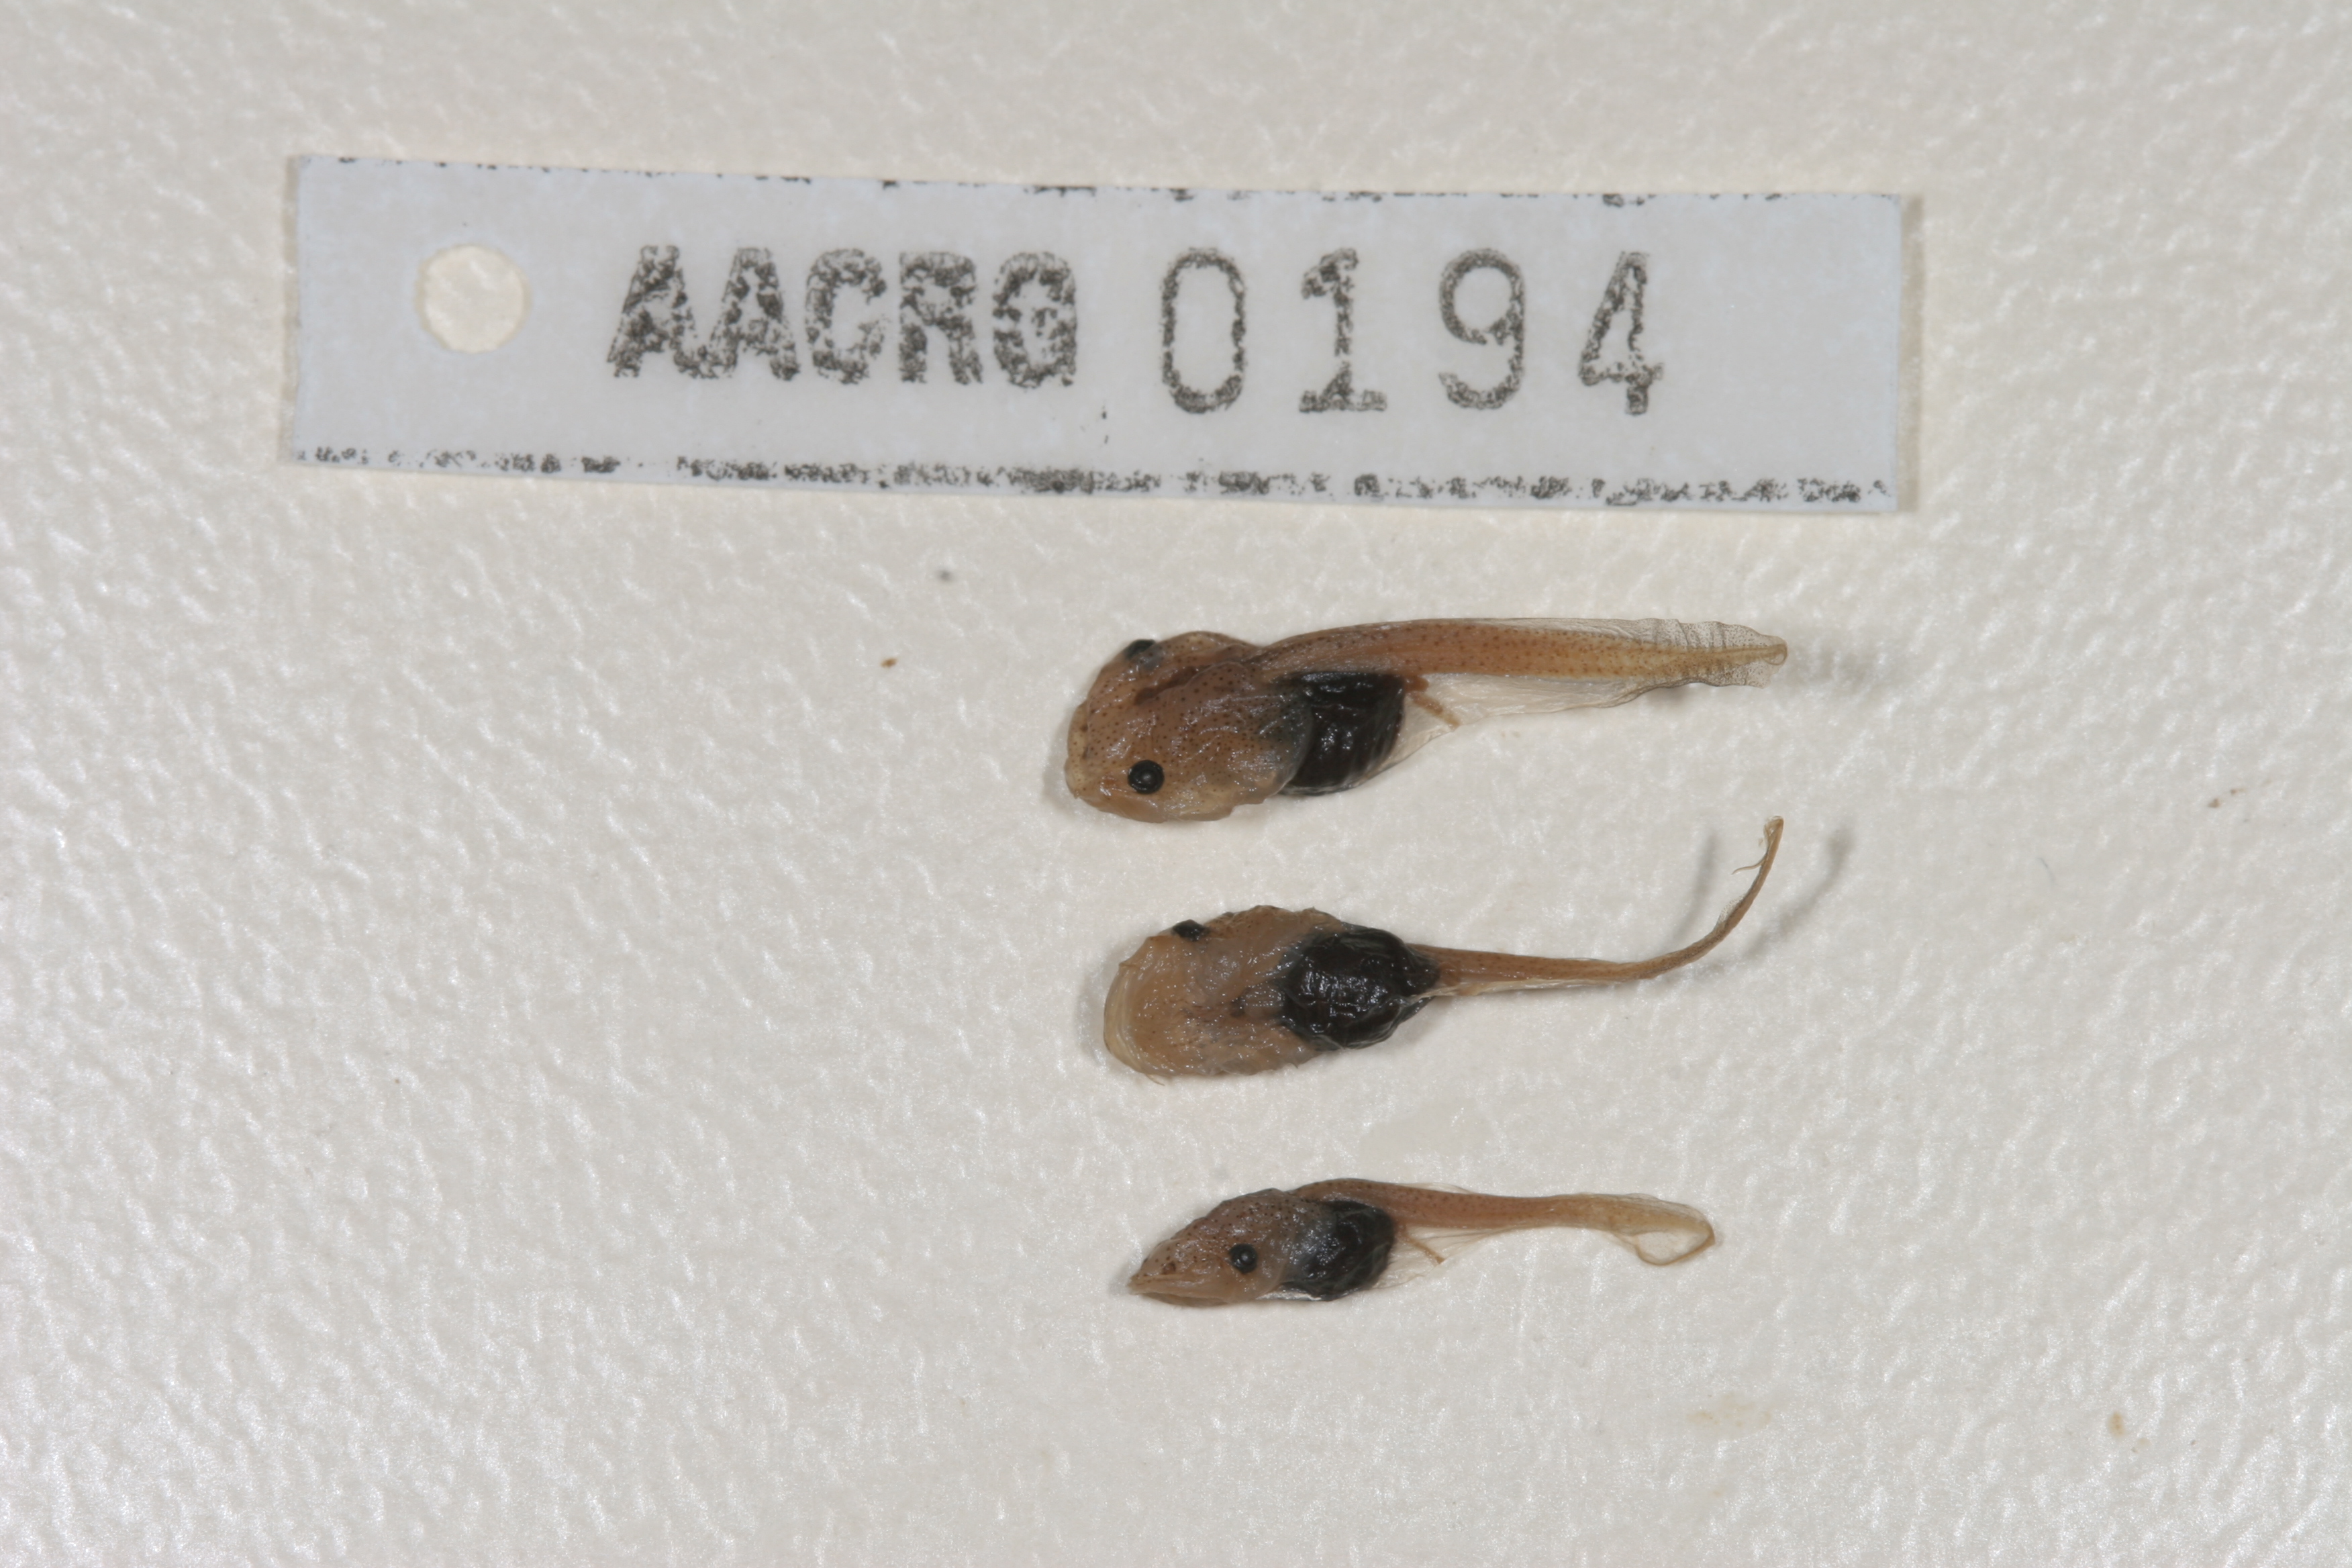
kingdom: Animalia
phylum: Chordata
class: Amphibia
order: Anura
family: Pipidae
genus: Xenopus
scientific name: Xenopus laevis
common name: African clawed frog
